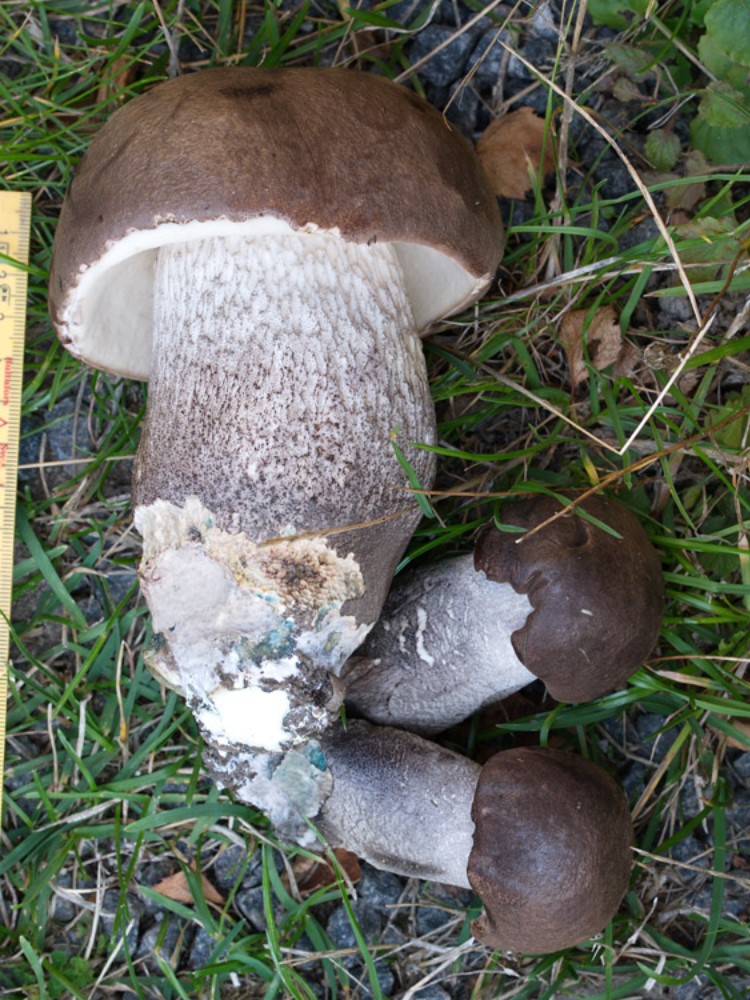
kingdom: Fungi
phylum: Basidiomycota
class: Agaricomycetes
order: Boletales
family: Boletaceae
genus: Leccinum
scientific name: Leccinum duriusculum
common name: poppel-skælrørhat
